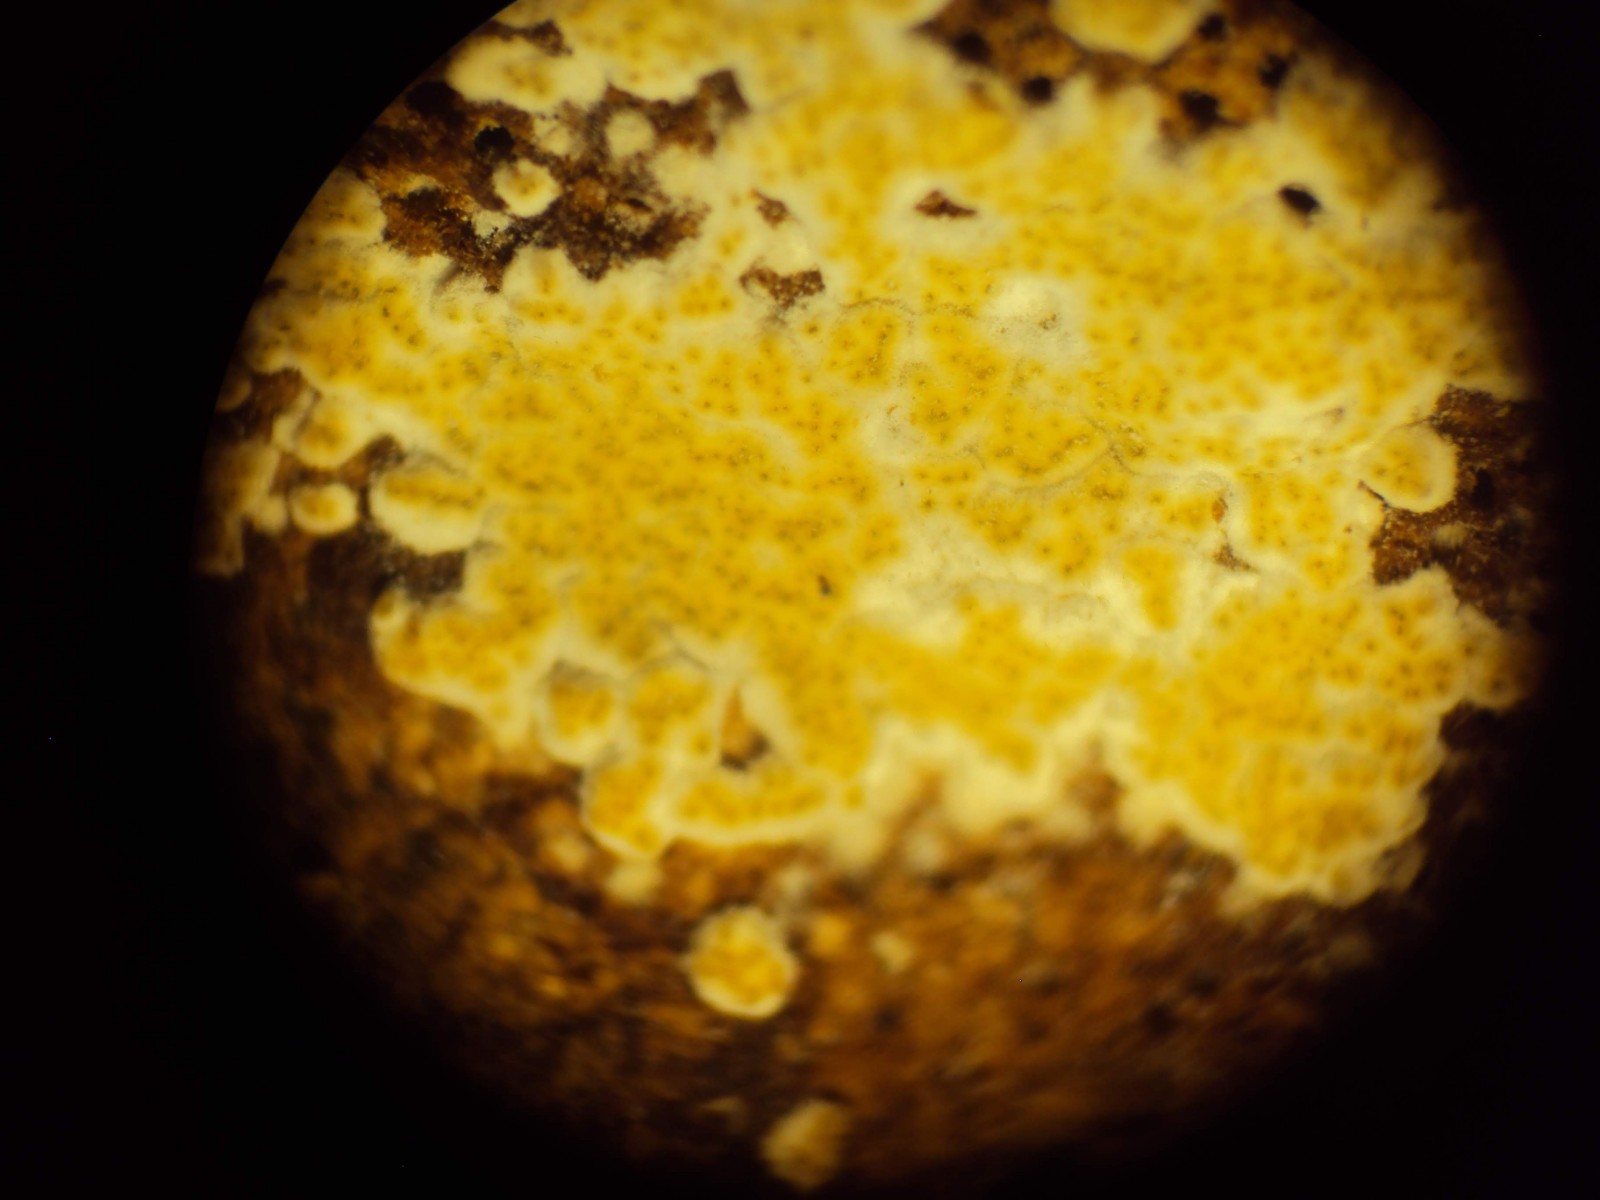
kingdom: Fungi
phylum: Ascomycota
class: Sordariomycetes
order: Hypocreales
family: Hypocreaceae
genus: Trichoderma
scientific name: Trichoderma protopulvinatum
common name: hovpore-kødkerne
